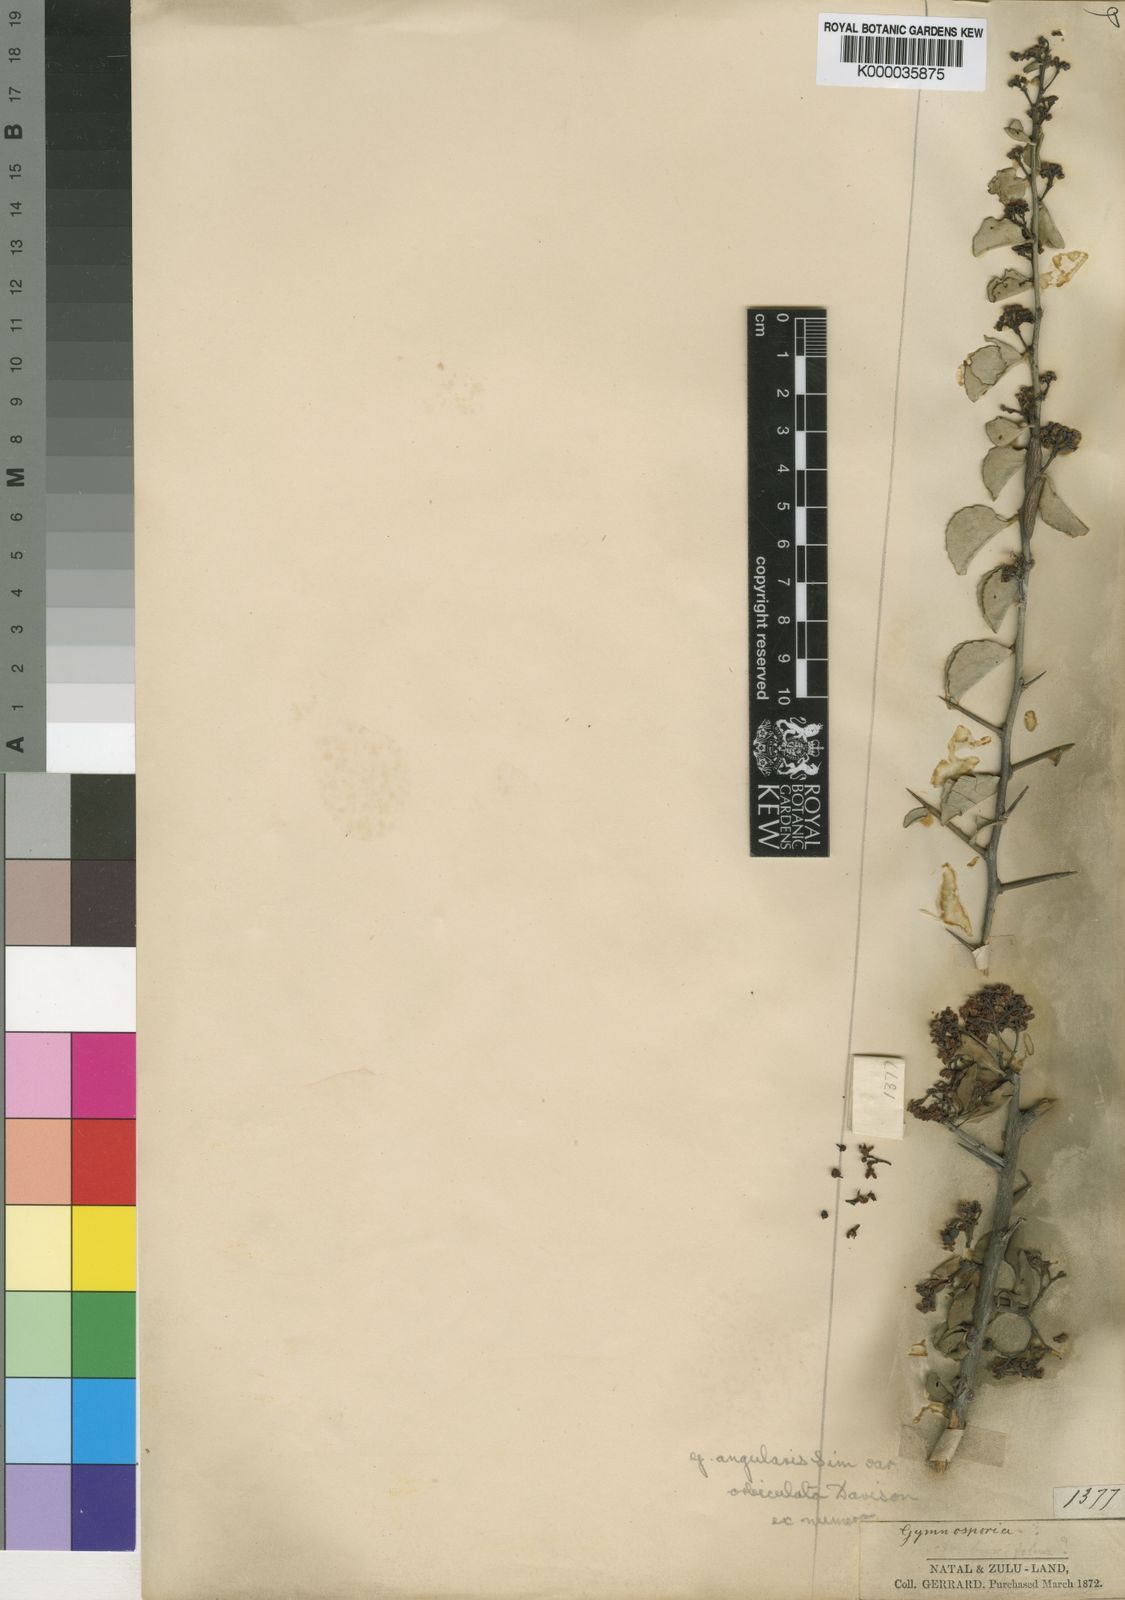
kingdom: Plantae
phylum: Tracheophyta
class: Magnoliopsida
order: Celastrales
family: Celastraceae
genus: Gymnosporia
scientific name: Gymnosporia heterophylla
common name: Angle-stem spikethorn
